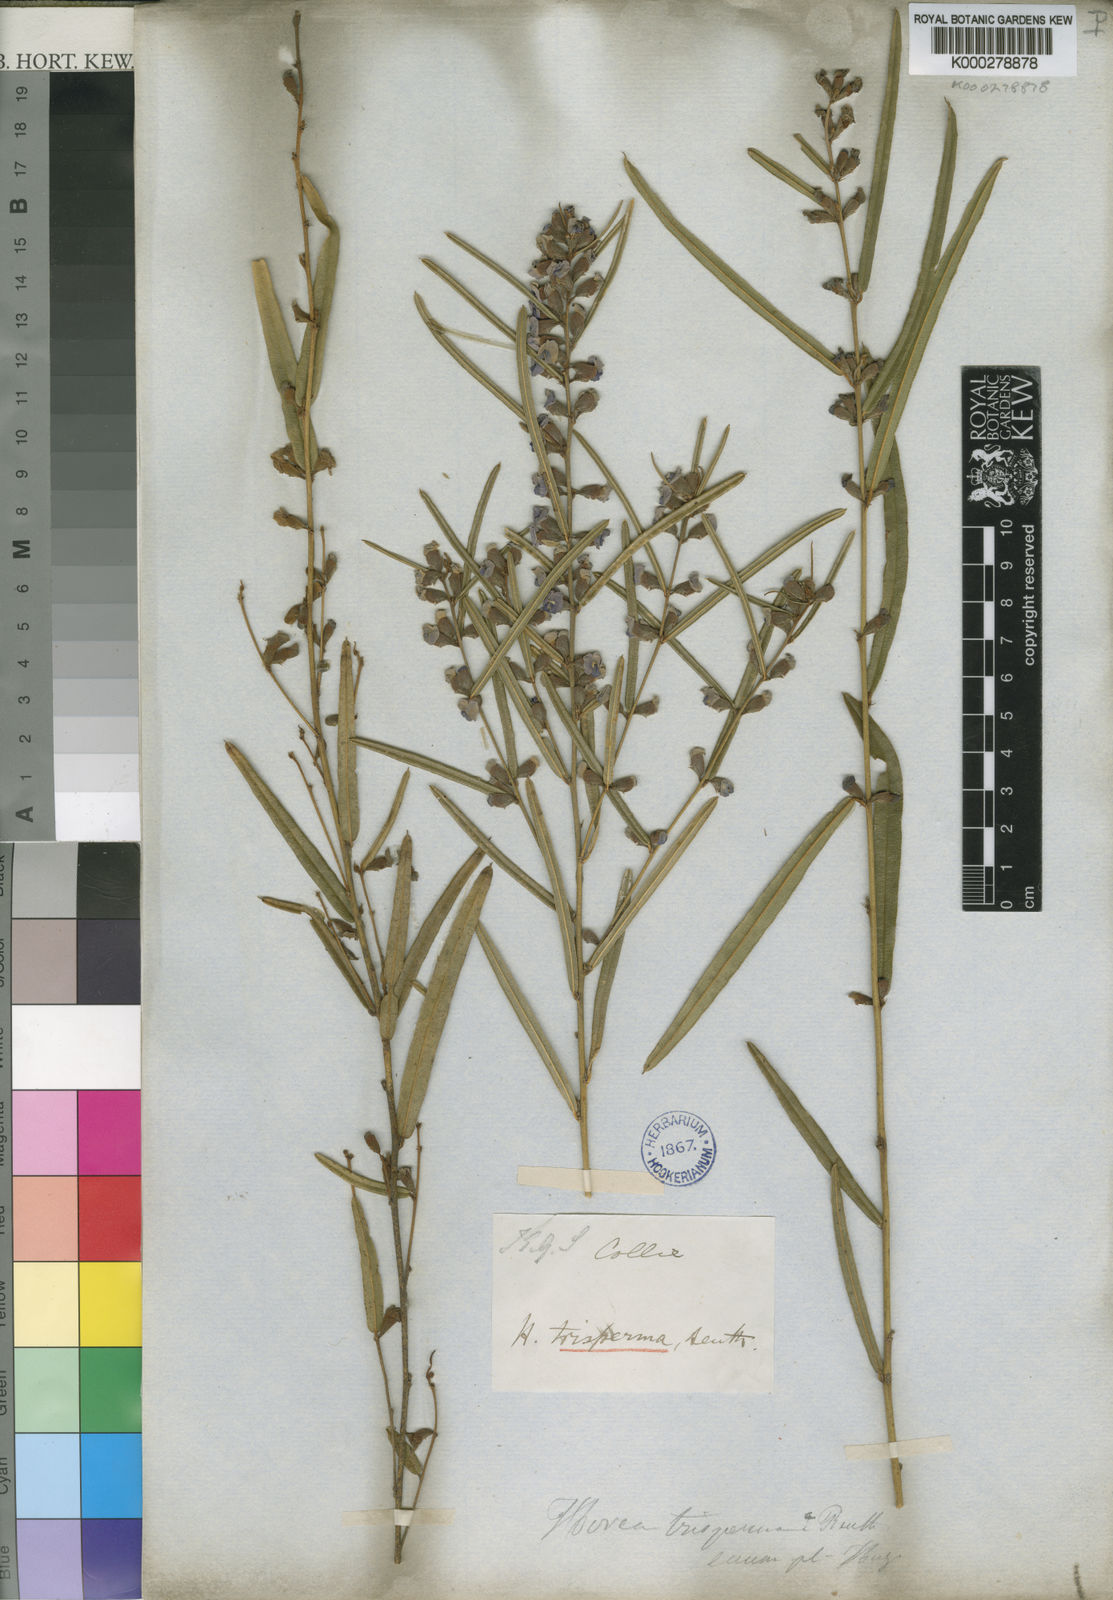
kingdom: Plantae
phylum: Tracheophyta
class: Magnoliopsida
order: Fabales
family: Fabaceae
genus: Hovea
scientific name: Hovea trisperma
